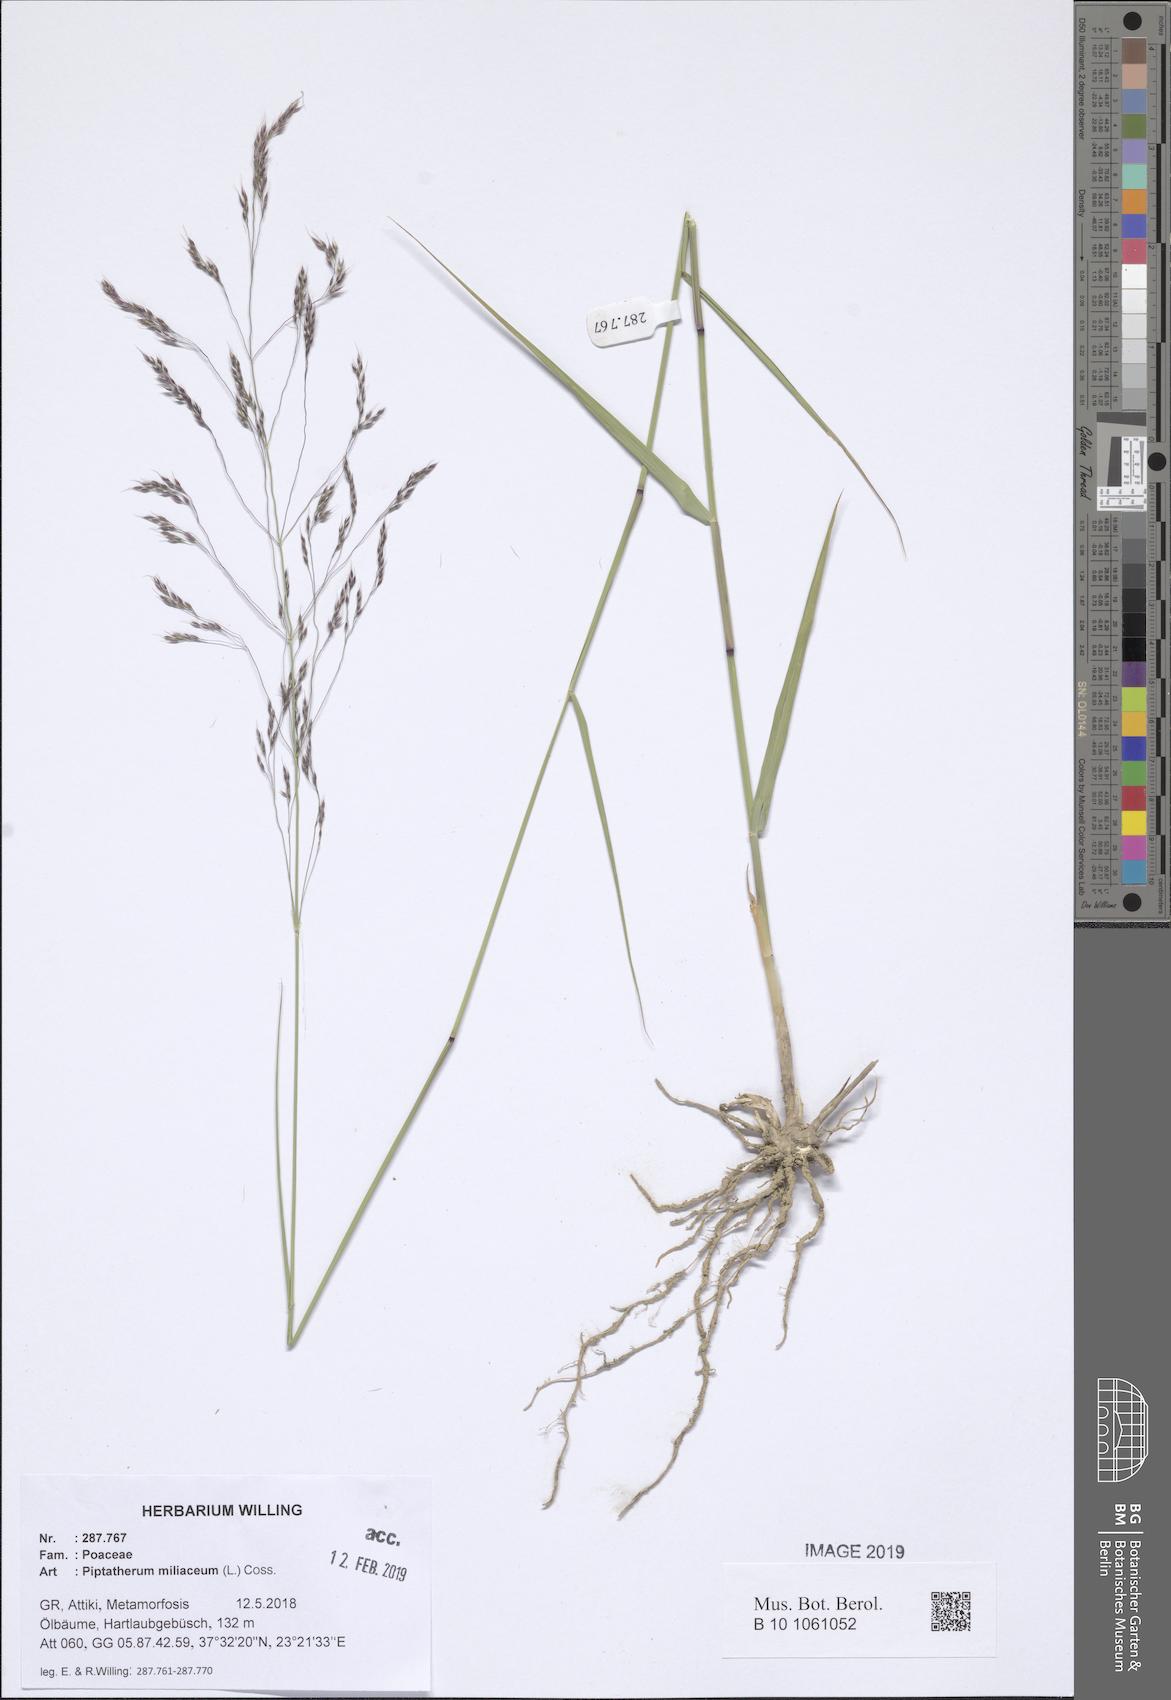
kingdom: Plantae
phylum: Tracheophyta
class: Liliopsida
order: Poales
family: Poaceae
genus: Oloptum
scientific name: Oloptum miliaceum
